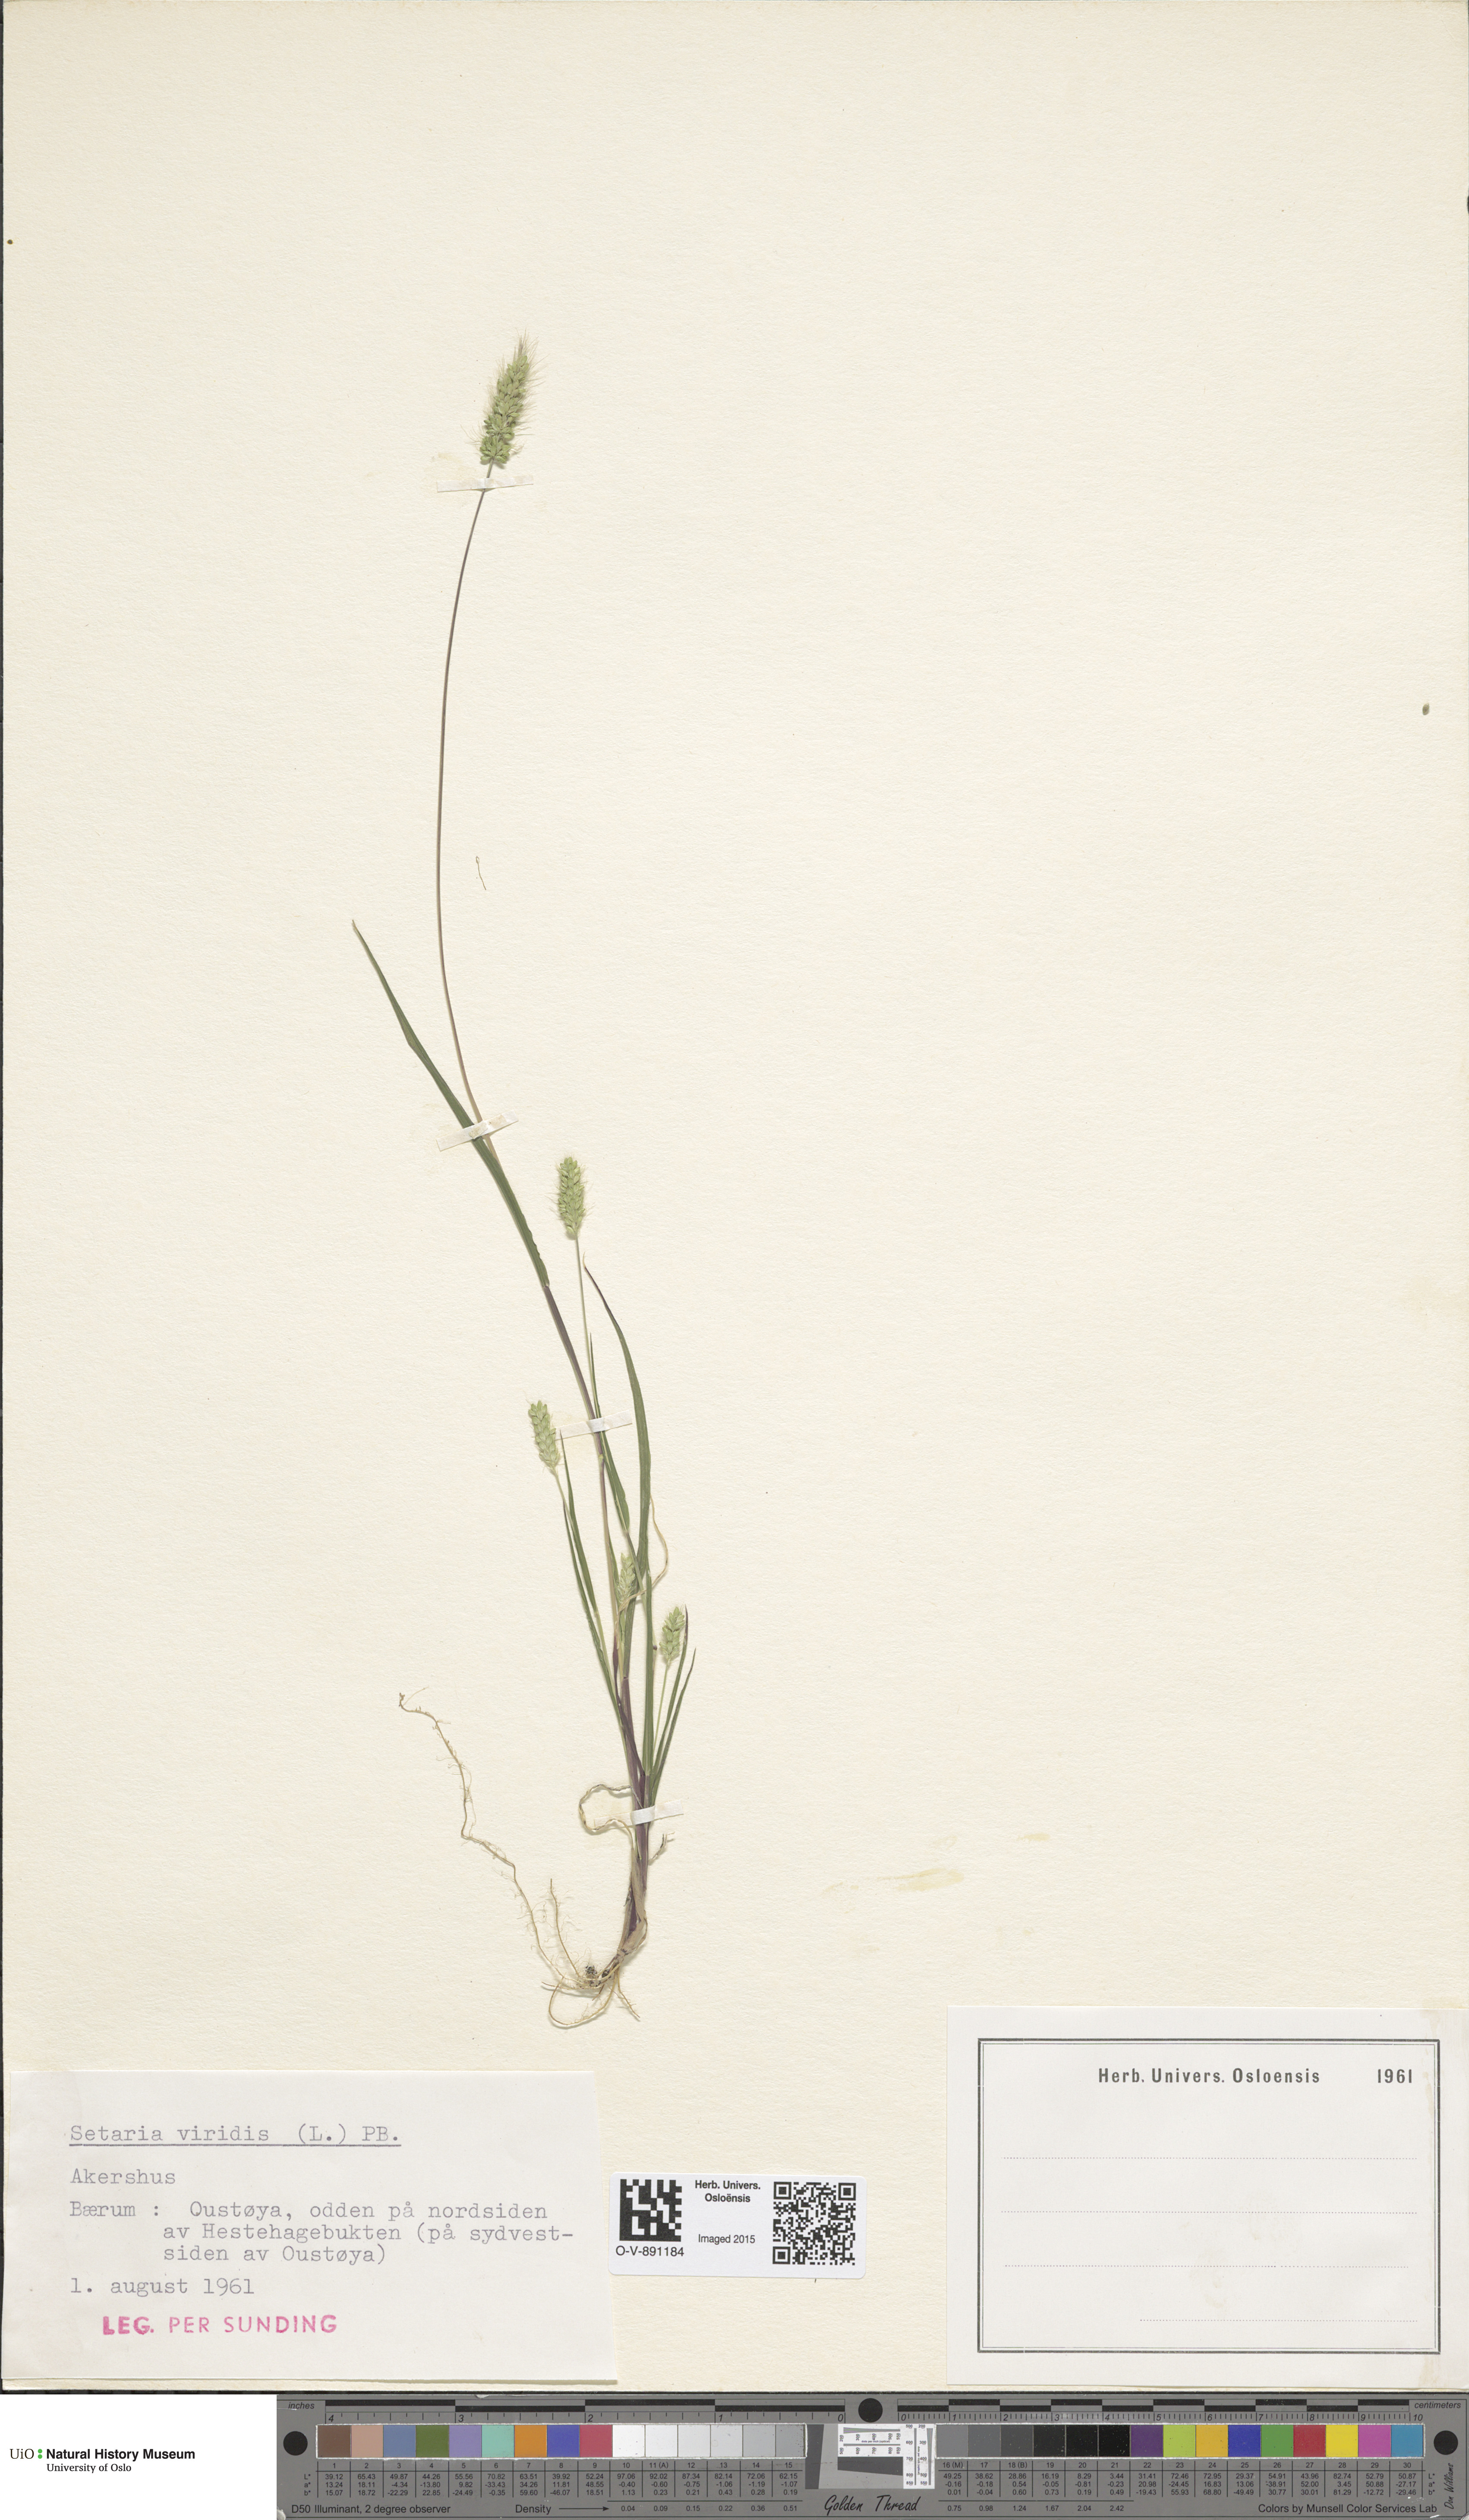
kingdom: Plantae
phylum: Tracheophyta
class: Liliopsida
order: Poales
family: Poaceae
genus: Setaria
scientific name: Setaria viridis
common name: Green bristlegrass
